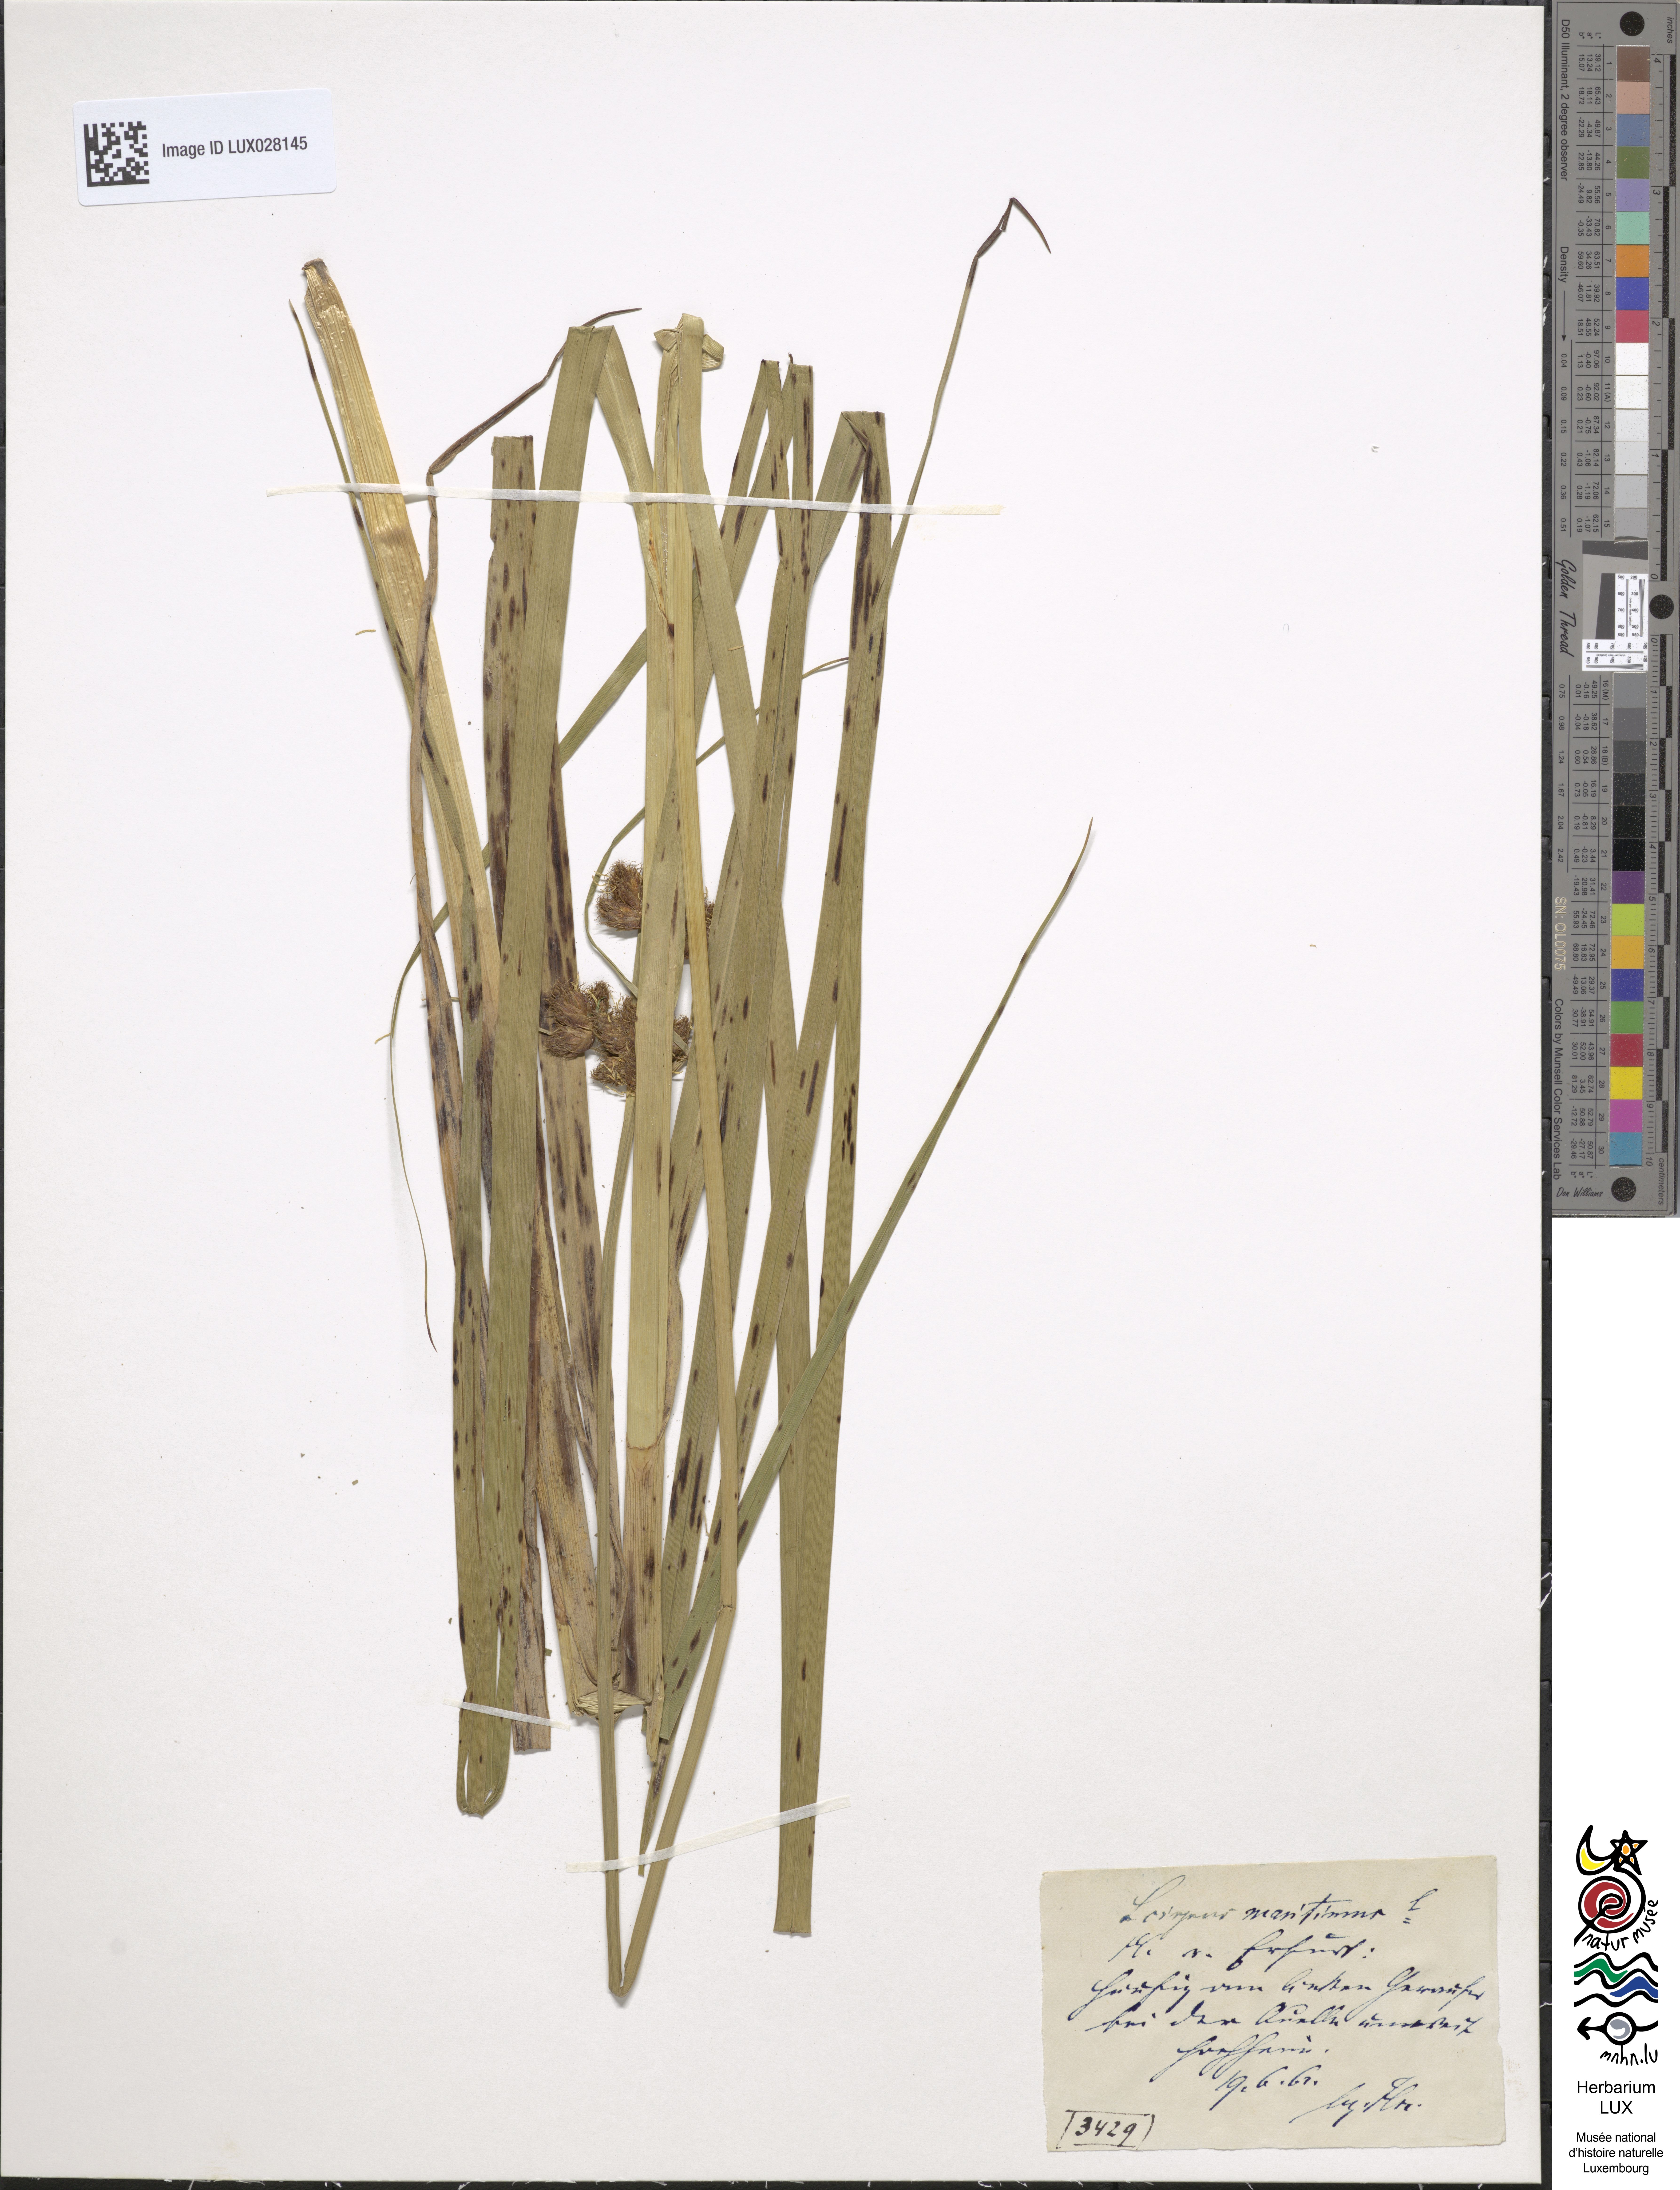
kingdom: Plantae
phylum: Tracheophyta
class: Liliopsida
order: Poales
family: Cyperaceae
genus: Bolboschoenus
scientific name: Bolboschoenus maritimus
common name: Sea club-rush
